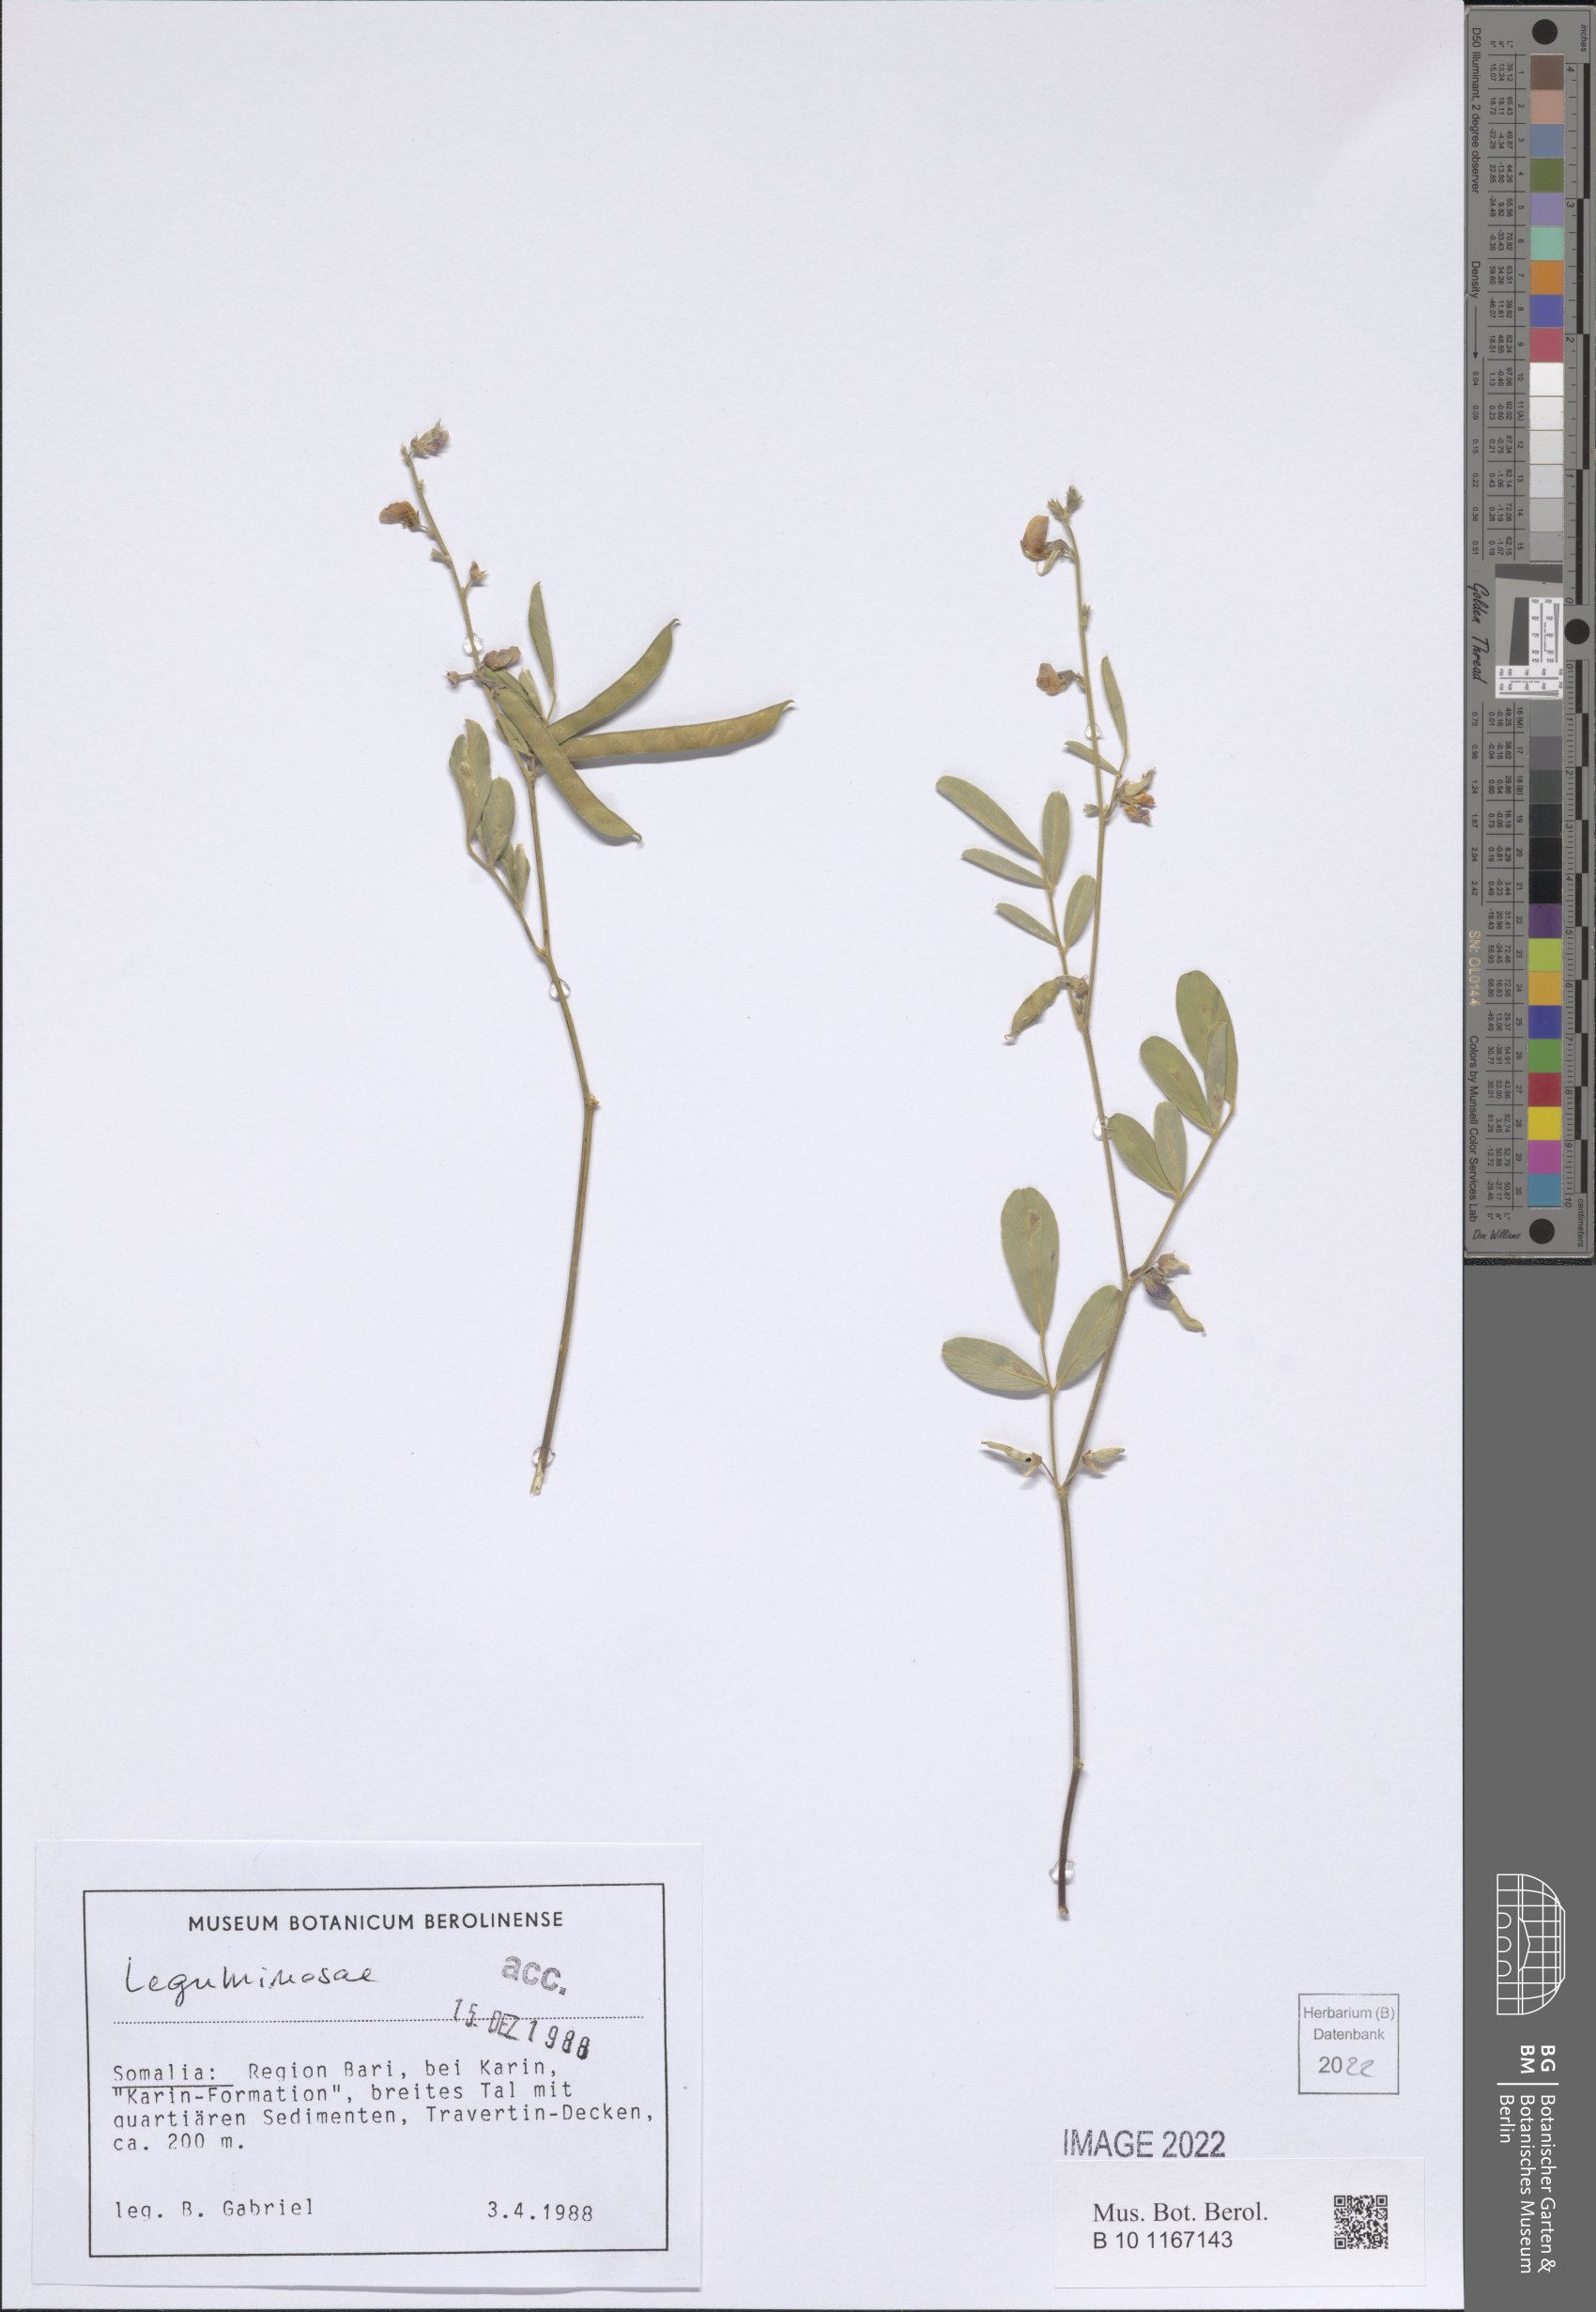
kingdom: Plantae
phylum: Tracheophyta
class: Magnoliopsida
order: Fabales
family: Fabaceae
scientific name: Fabaceae
